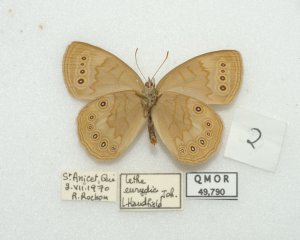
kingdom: Animalia
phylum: Arthropoda
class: Insecta
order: Lepidoptera
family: Nymphalidae
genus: Lethe
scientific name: Lethe eurydice
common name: Eyed Brown
